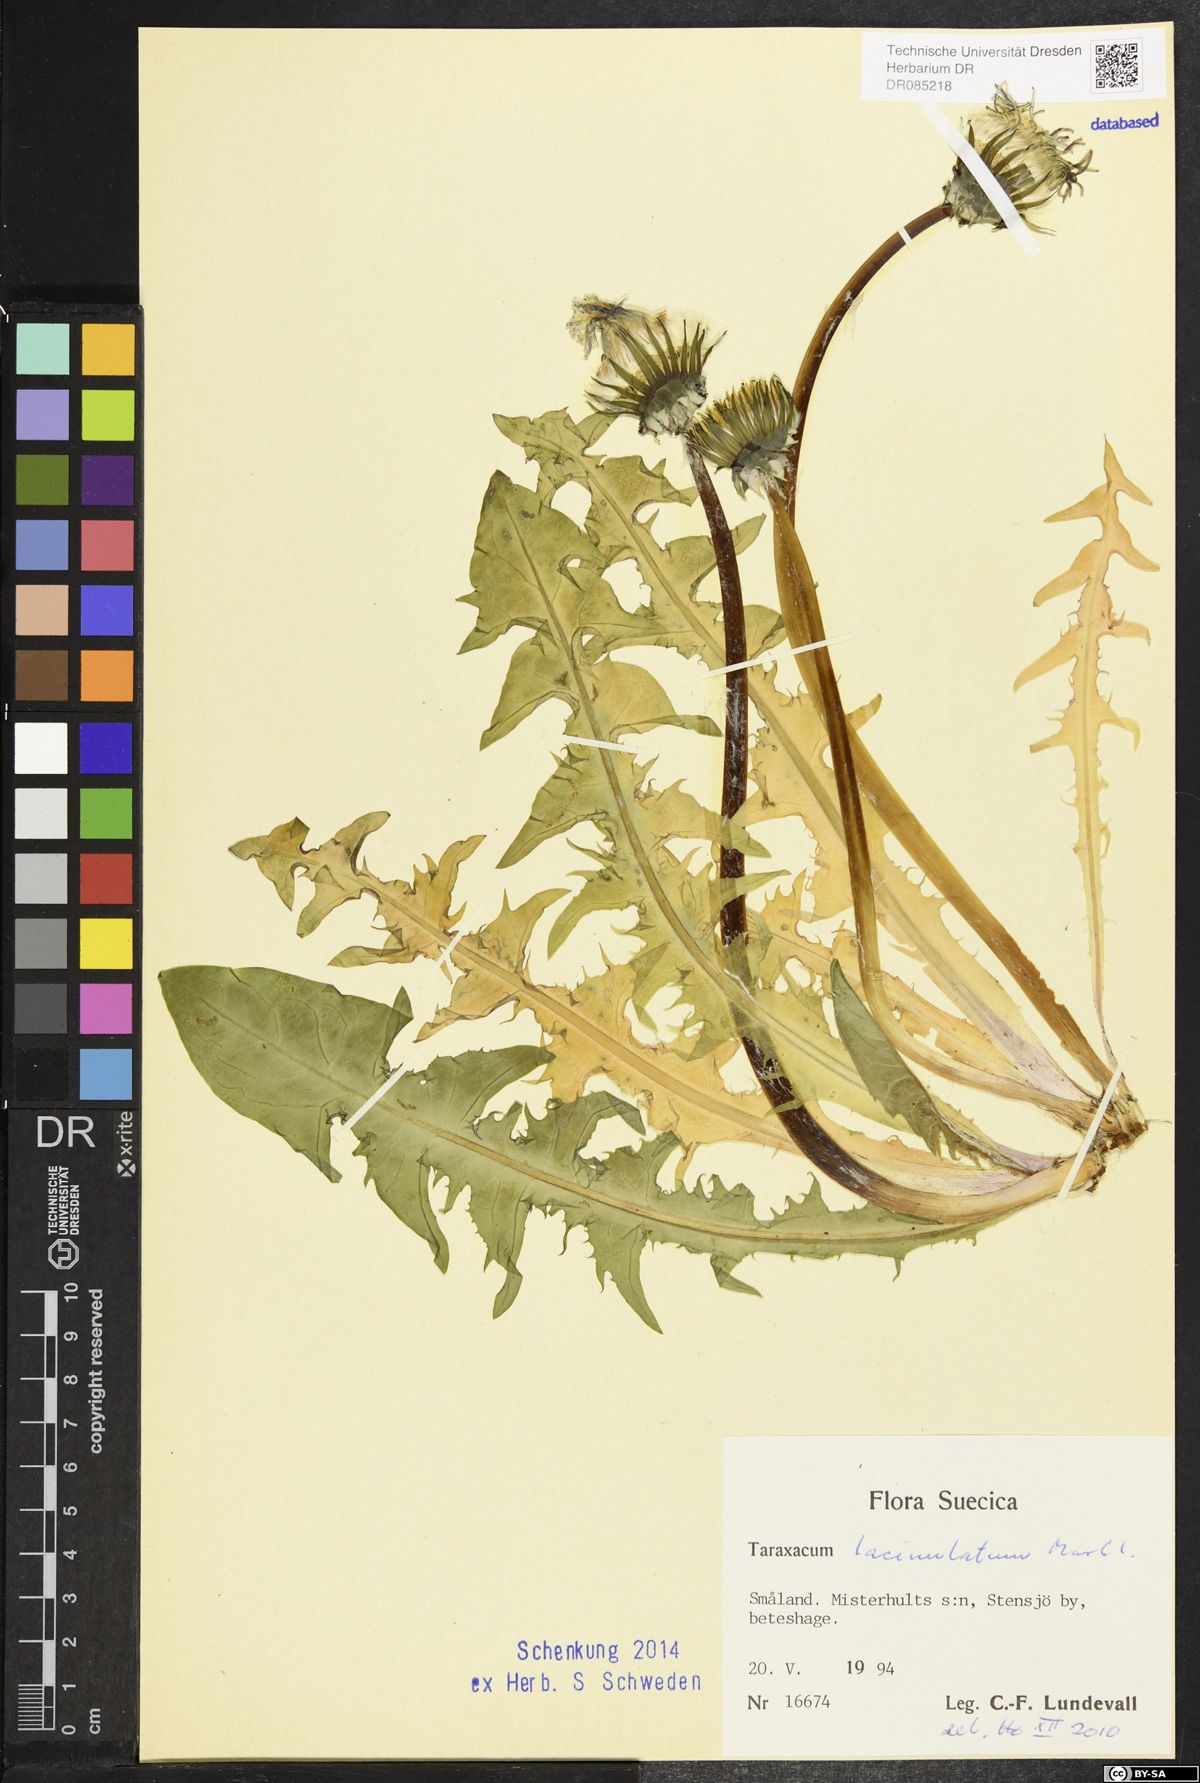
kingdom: Plantae
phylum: Tracheophyta
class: Magnoliopsida
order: Asterales
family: Asteraceae
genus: Taraxacum
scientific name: Taraxacum lacinulatum
